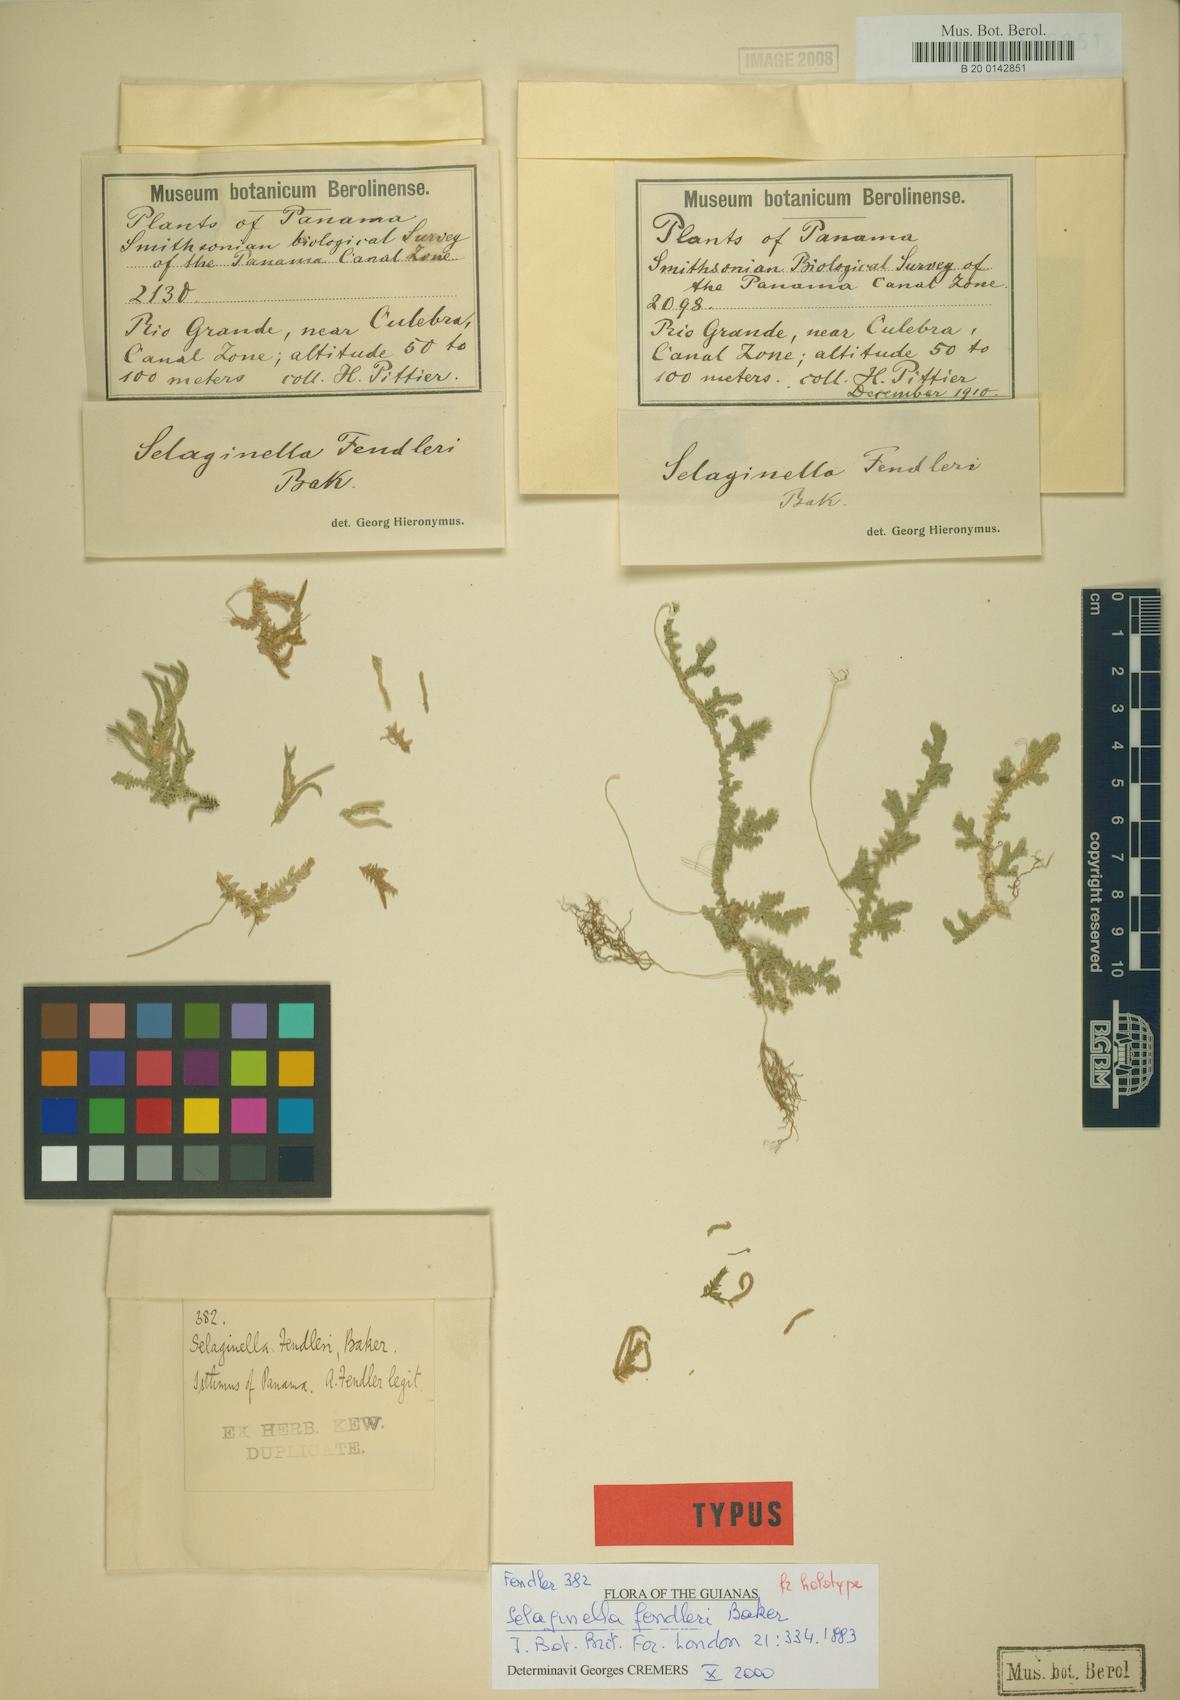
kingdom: Plantae
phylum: Tracheophyta
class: Lycopodiopsida
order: Selaginellales
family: Selaginellaceae
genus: Selaginella
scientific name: Selaginella horizontalis
